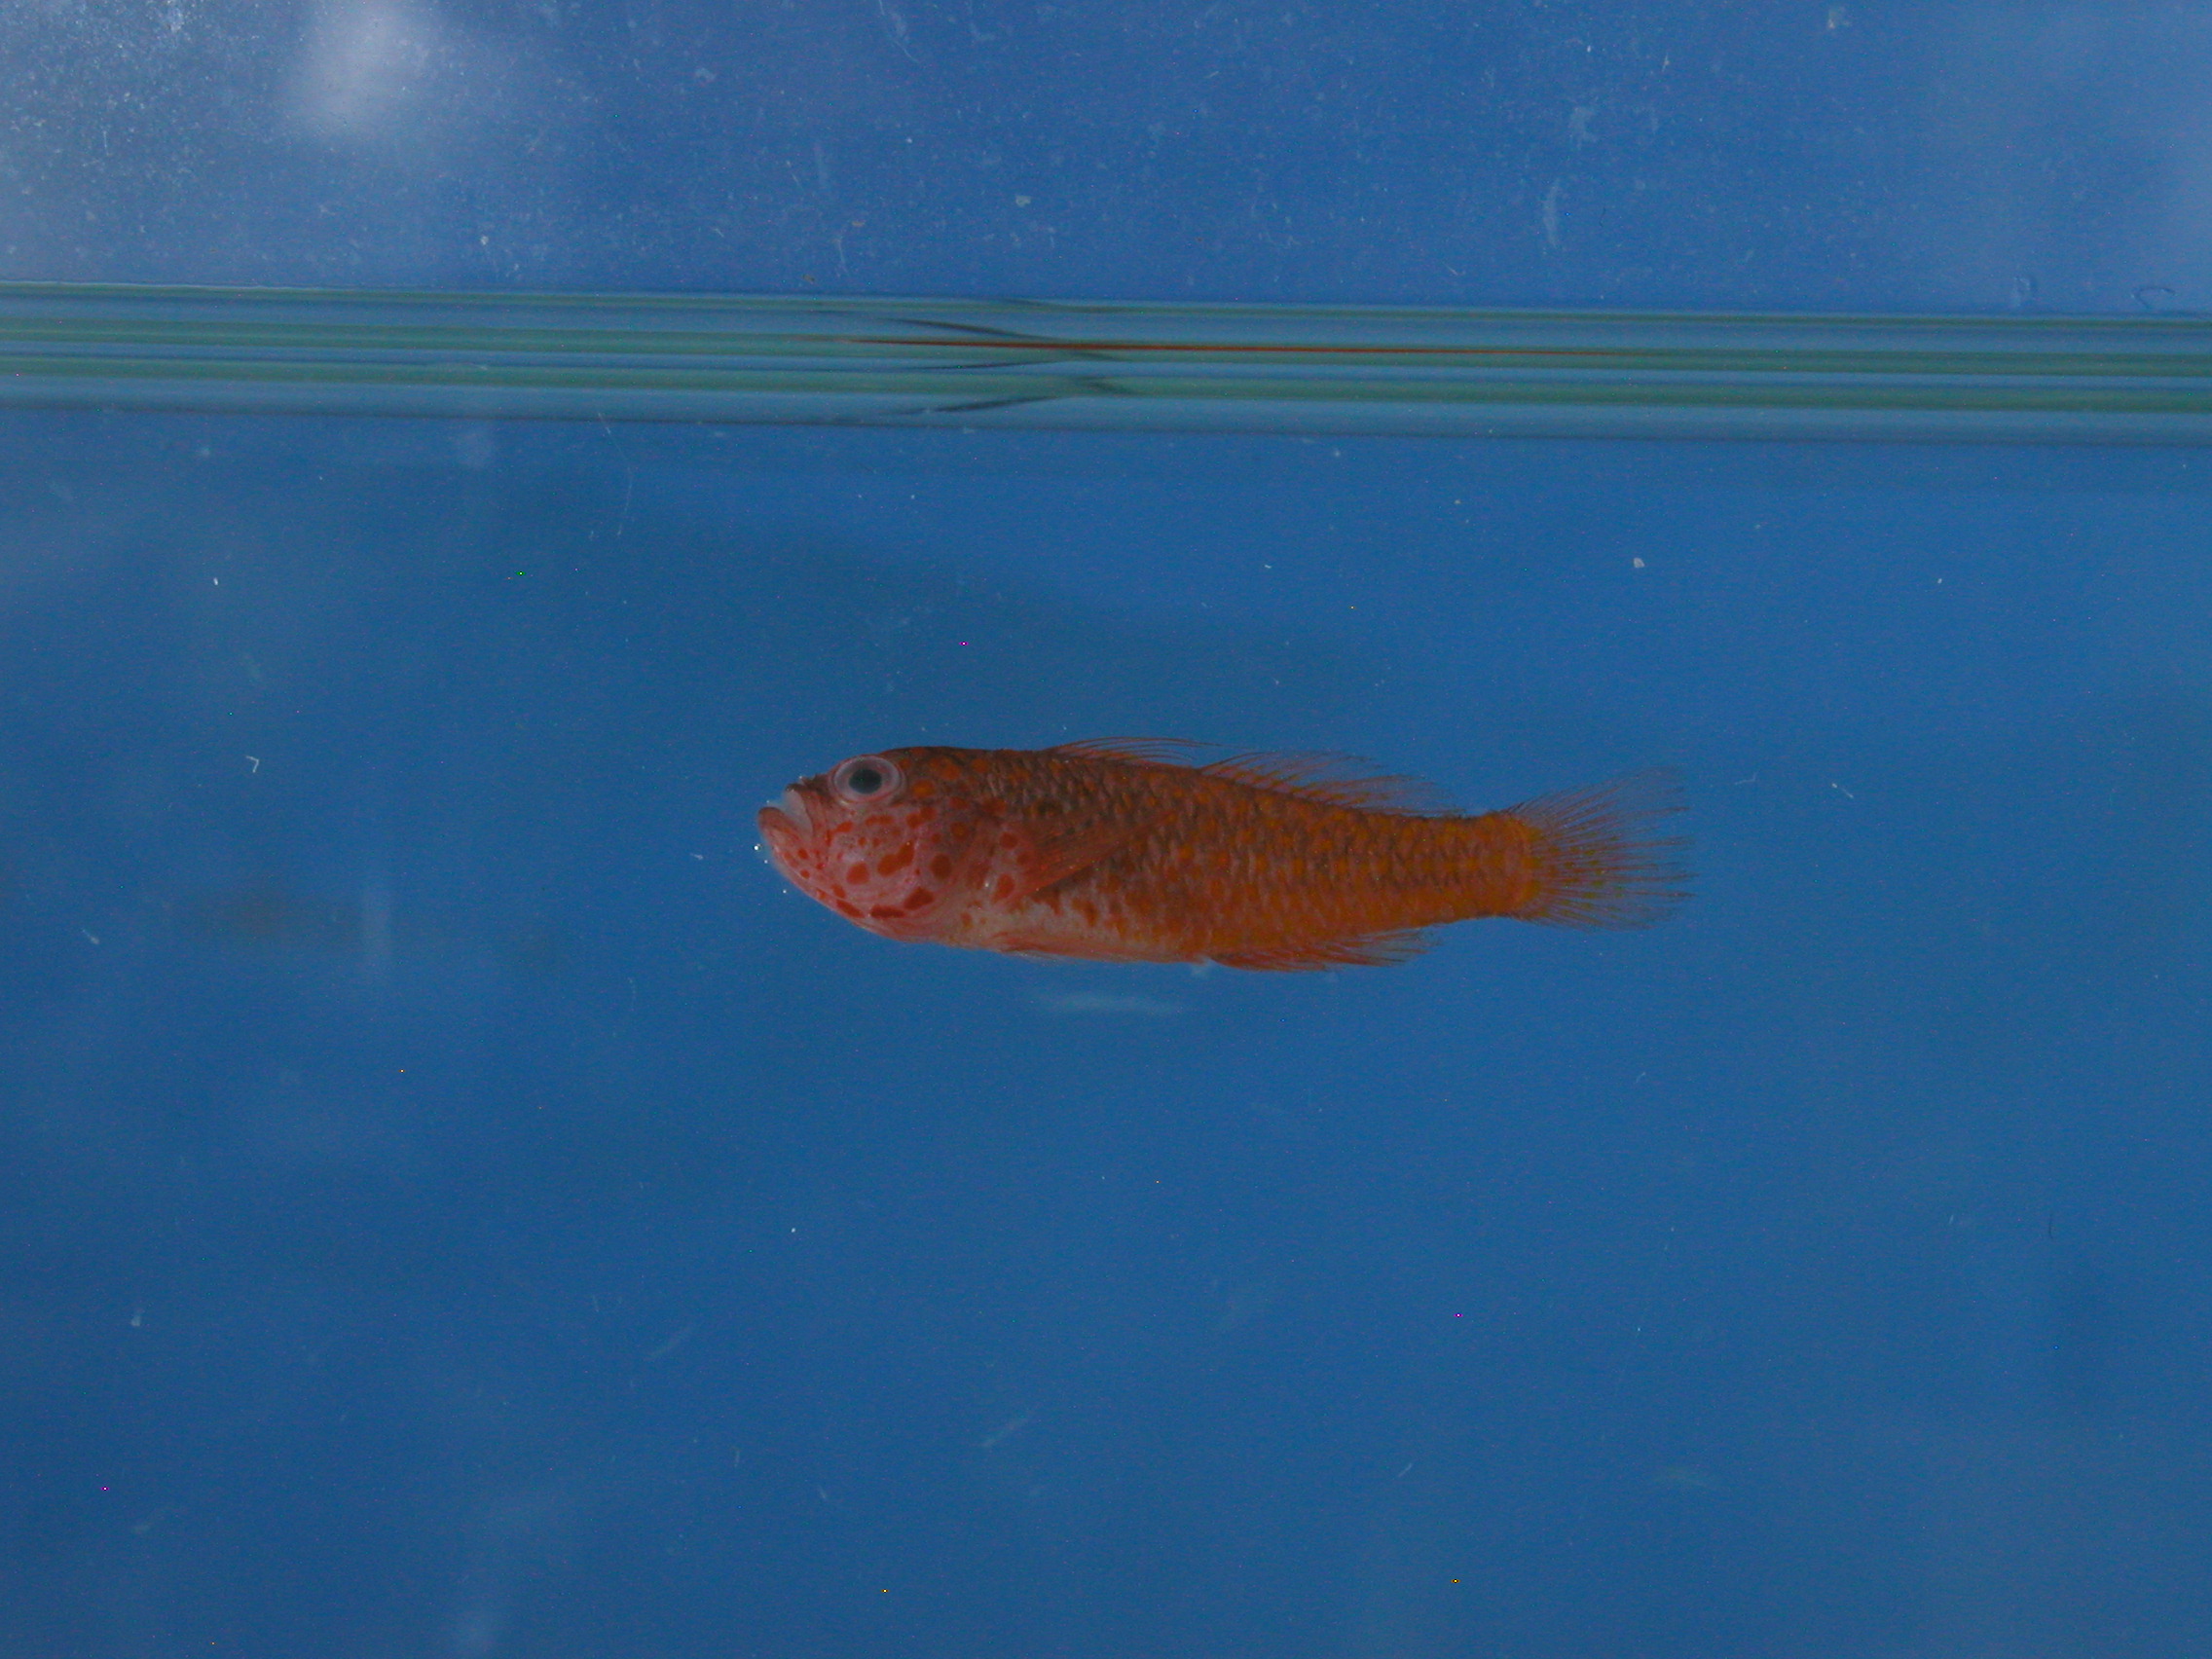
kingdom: Animalia
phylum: Chordata
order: Perciformes
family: Gobiidae
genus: Trimma
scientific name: Trimma flammeum
